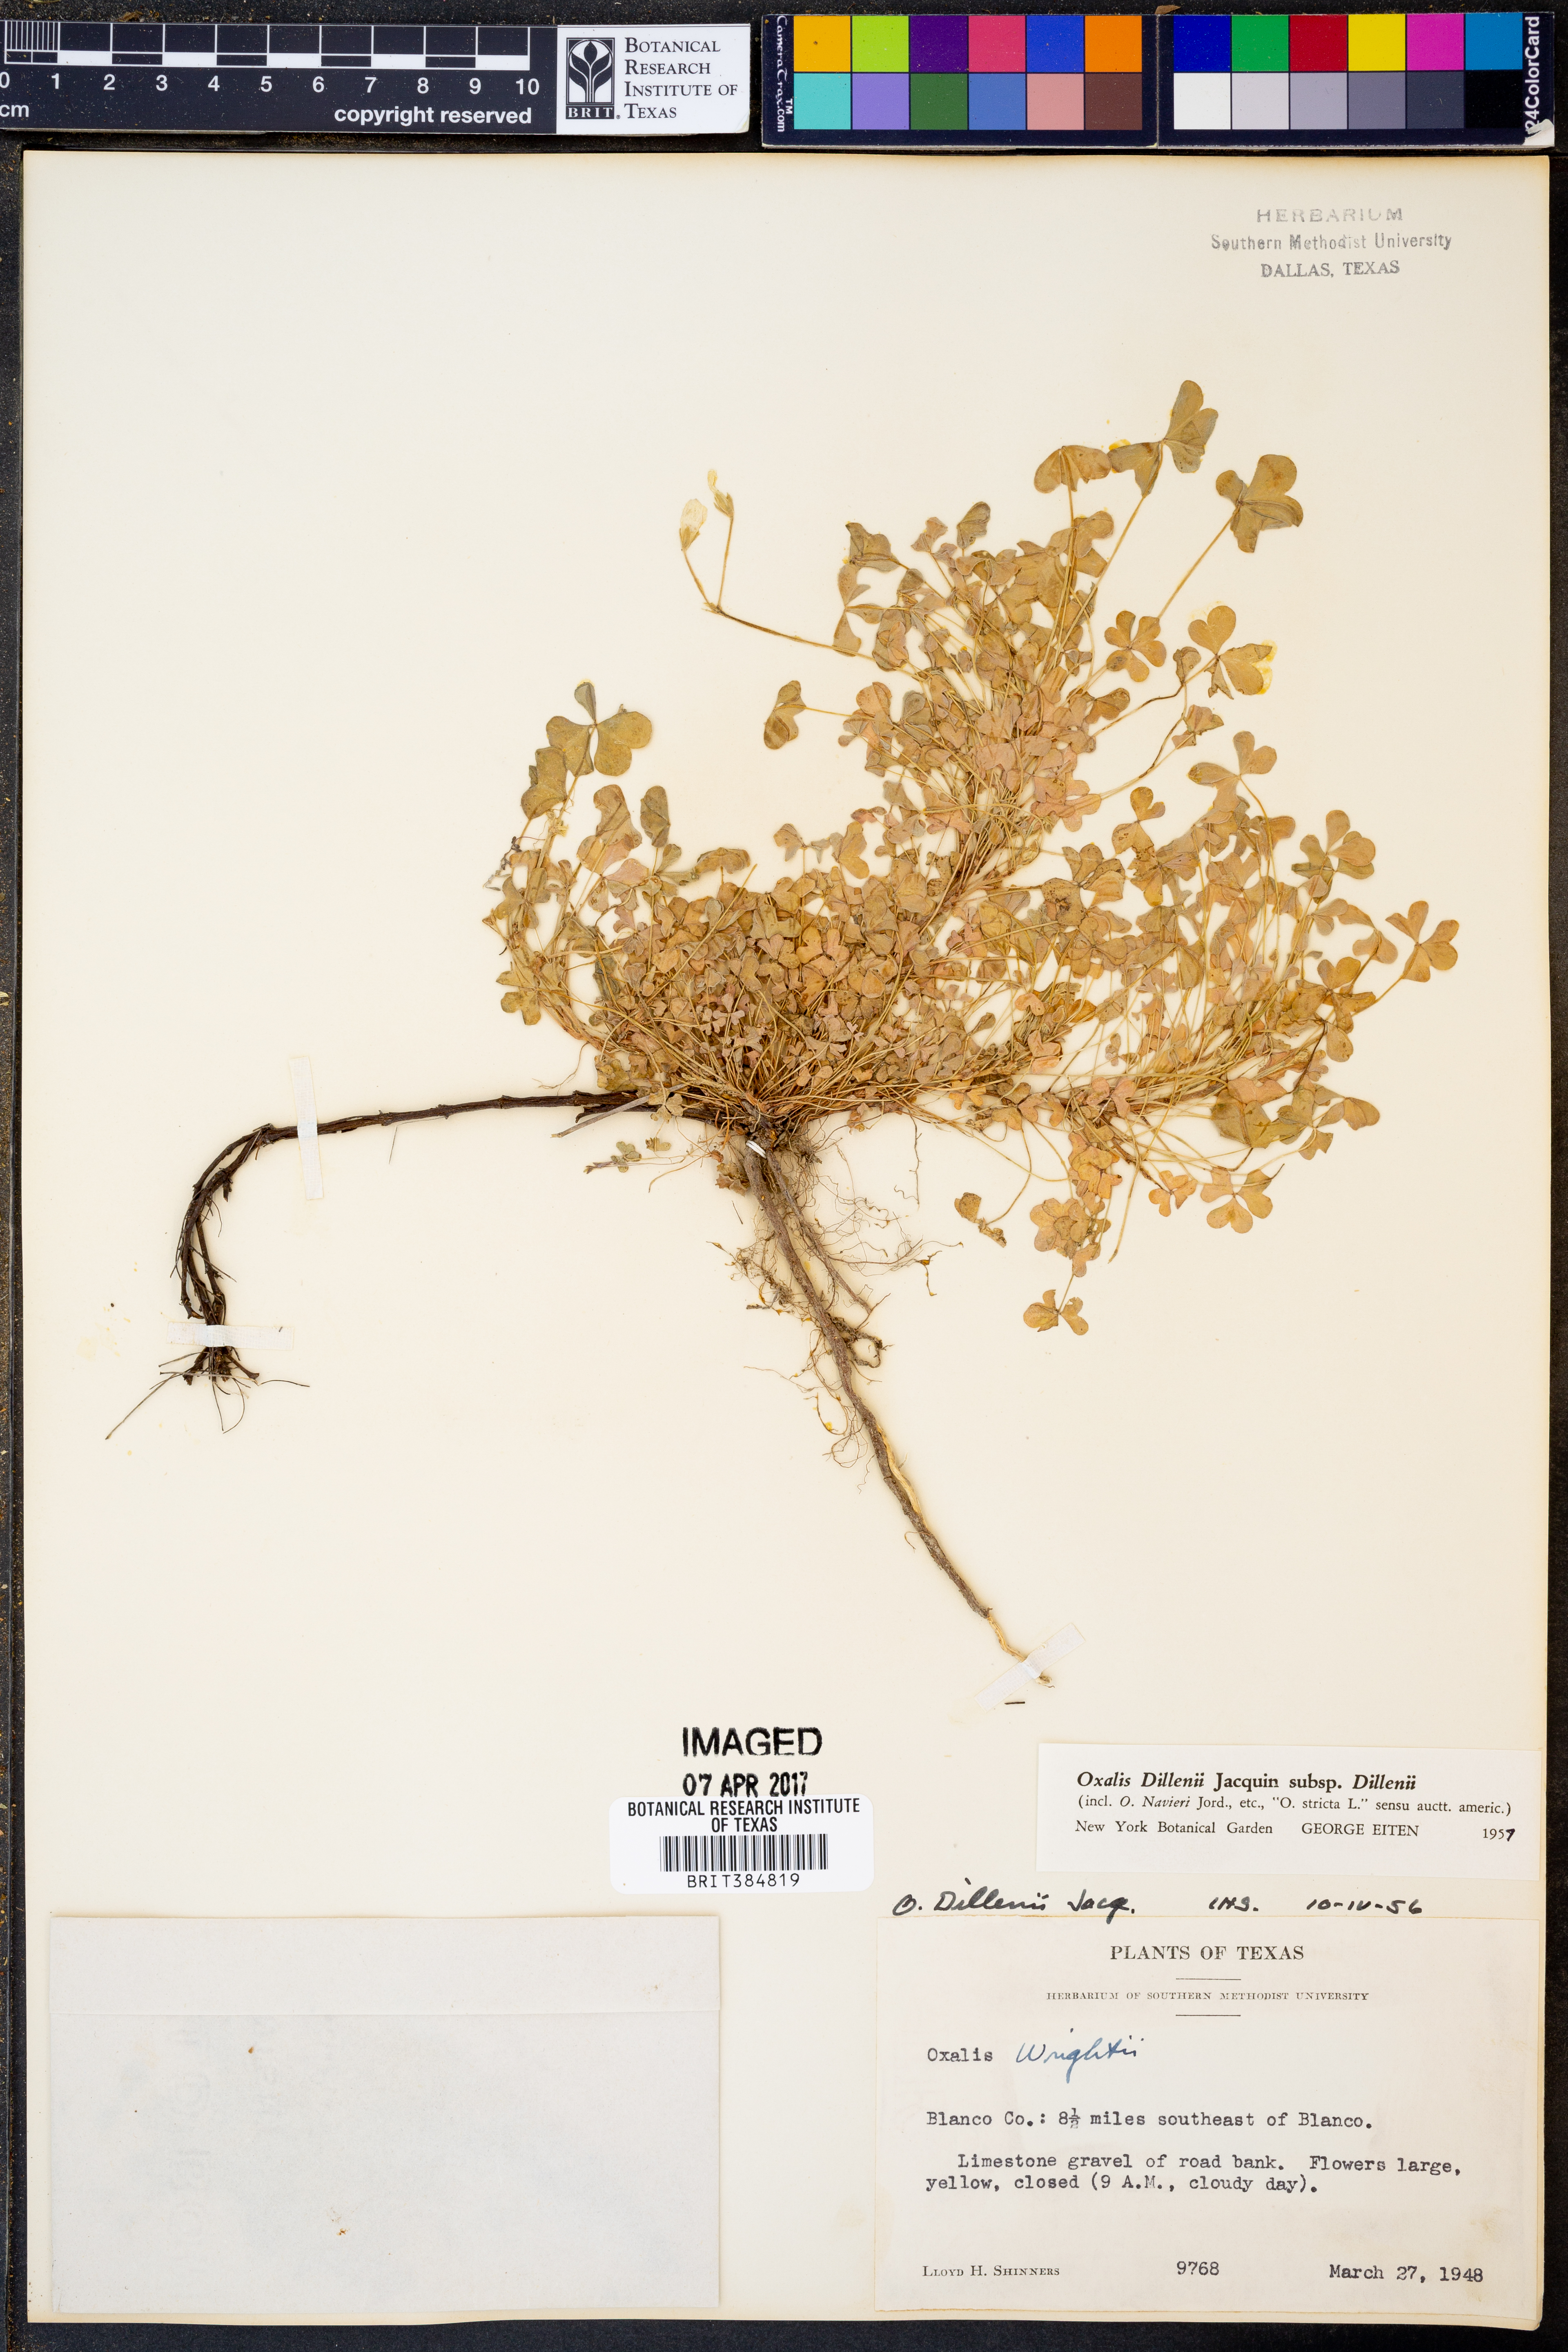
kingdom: Plantae
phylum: Tracheophyta
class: Magnoliopsida
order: Oxalidales
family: Oxalidaceae
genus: Oxalis
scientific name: Oxalis dillenii
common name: Sussex yellow-sorrel
